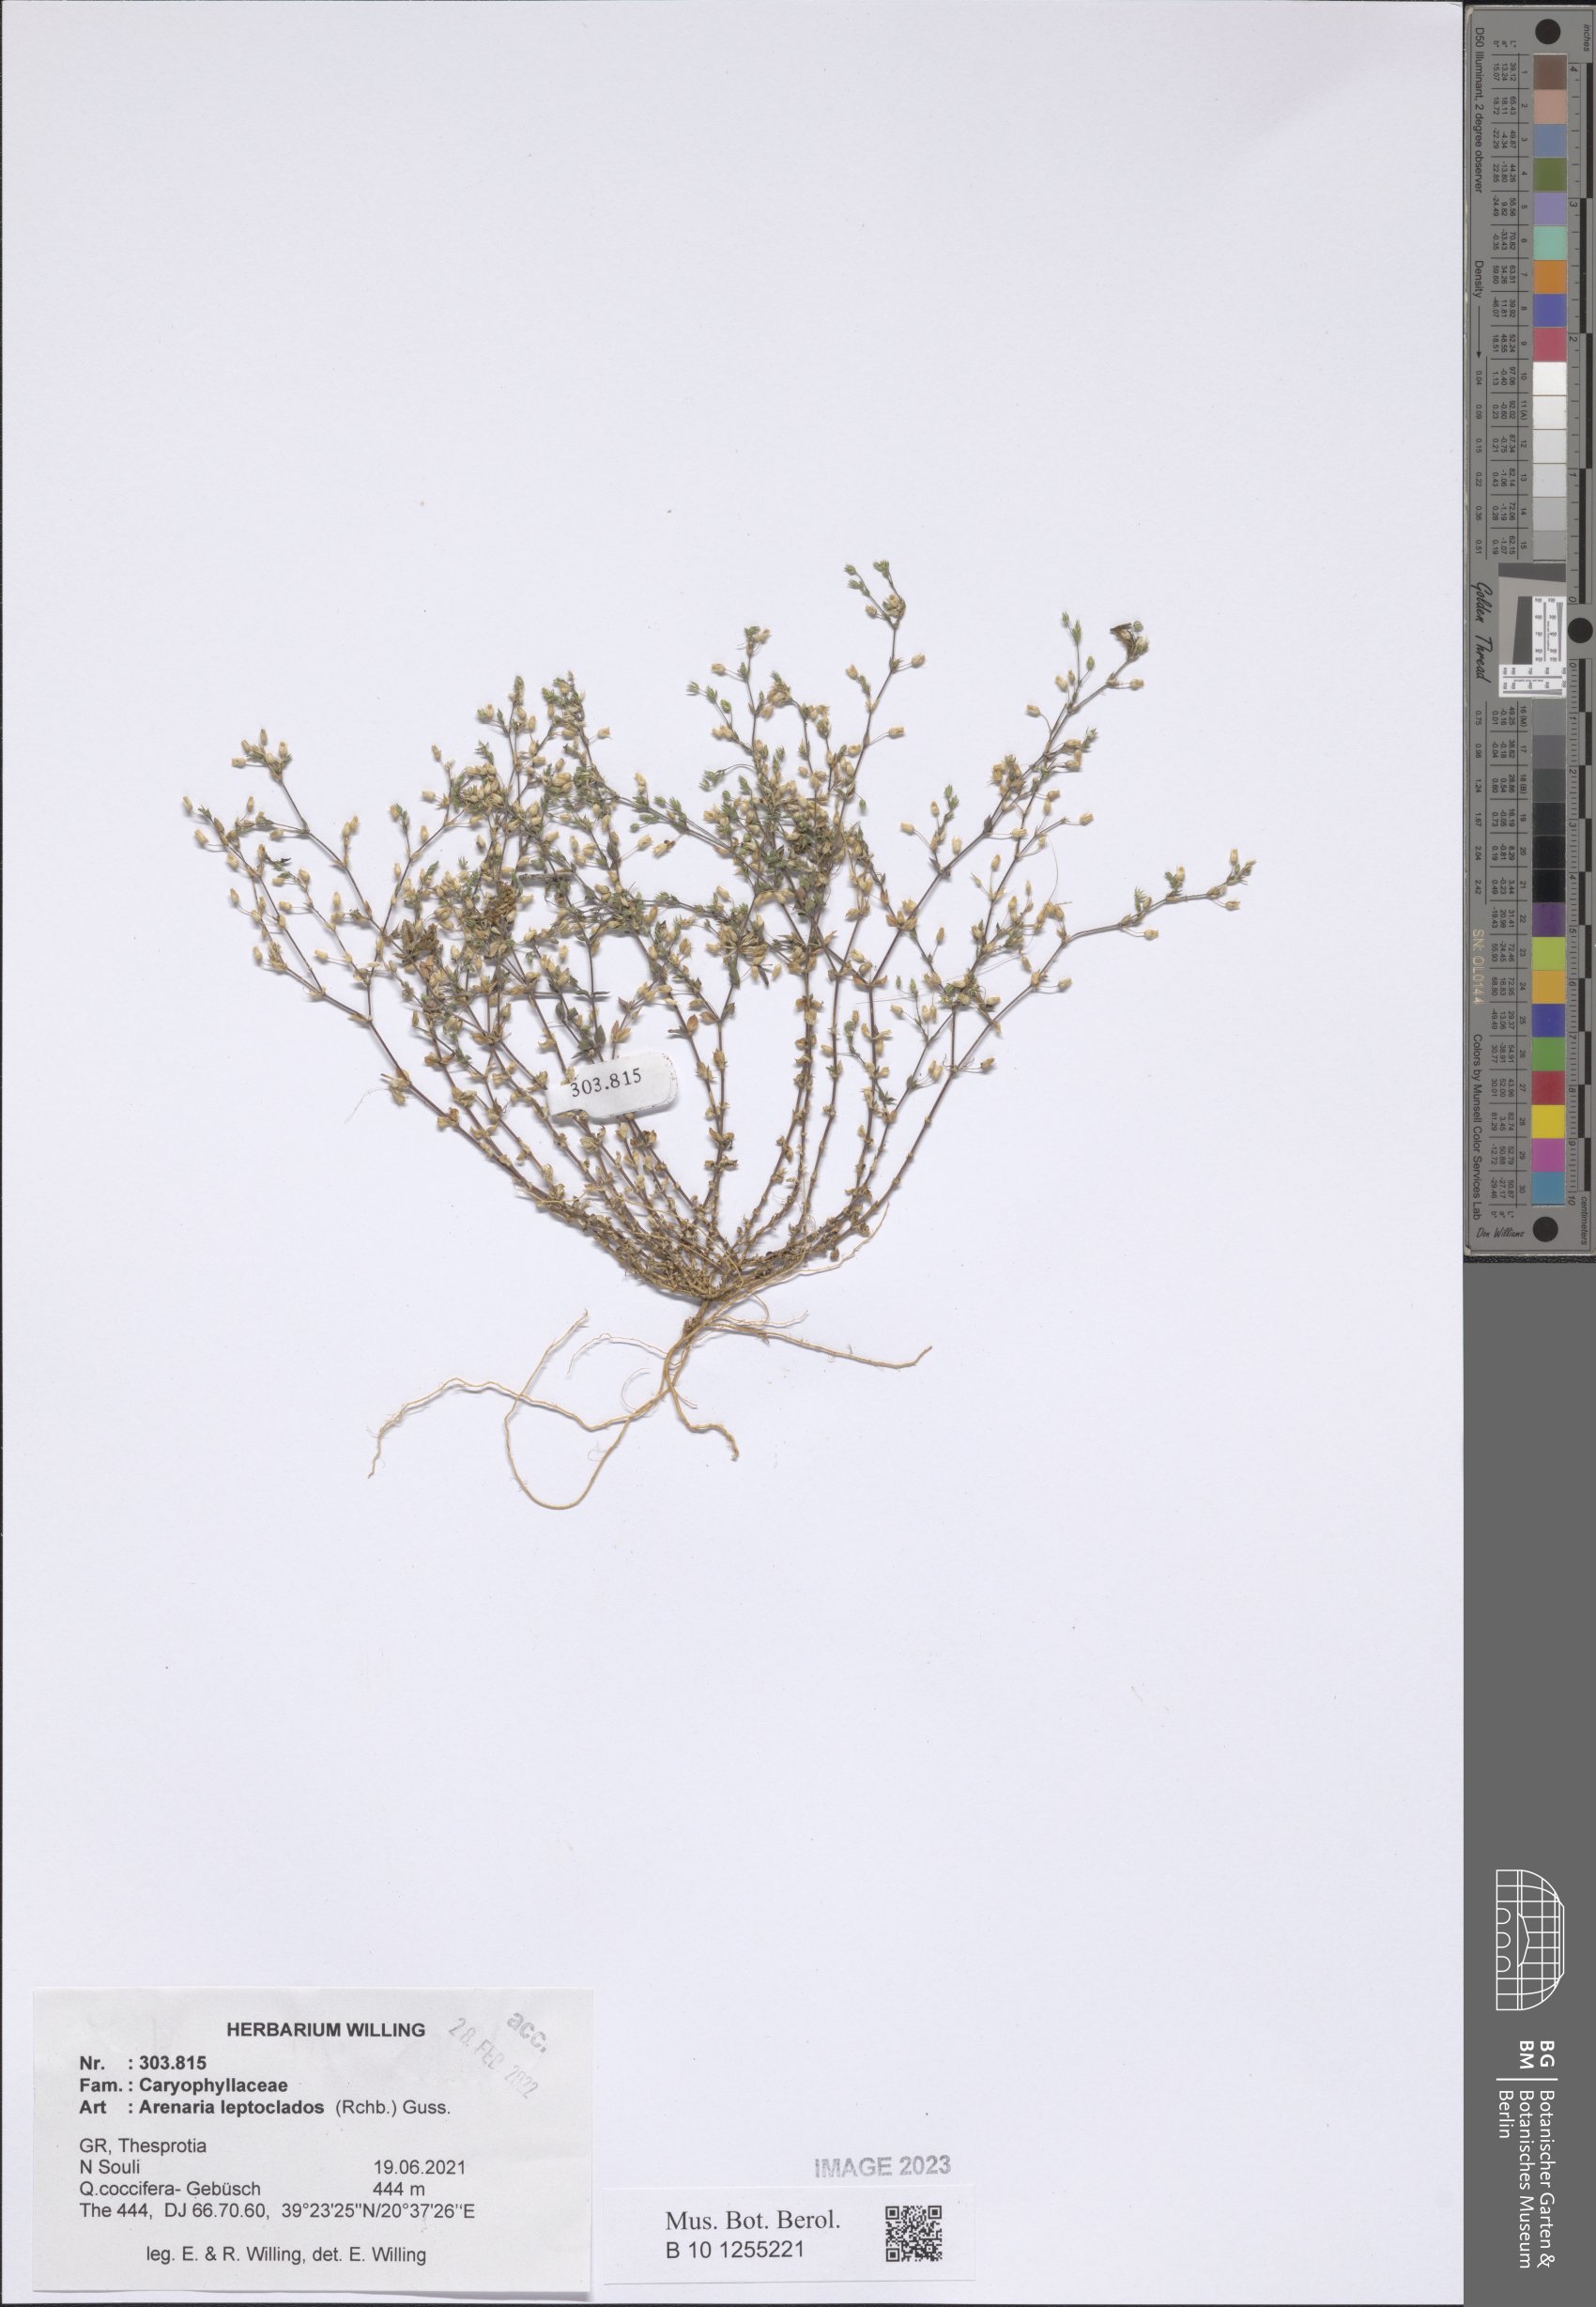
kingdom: Plantae
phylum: Tracheophyta
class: Magnoliopsida
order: Caryophyllales
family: Caryophyllaceae
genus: Arenaria
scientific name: Arenaria leptoclados
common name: Thyme-leaved sandwort
